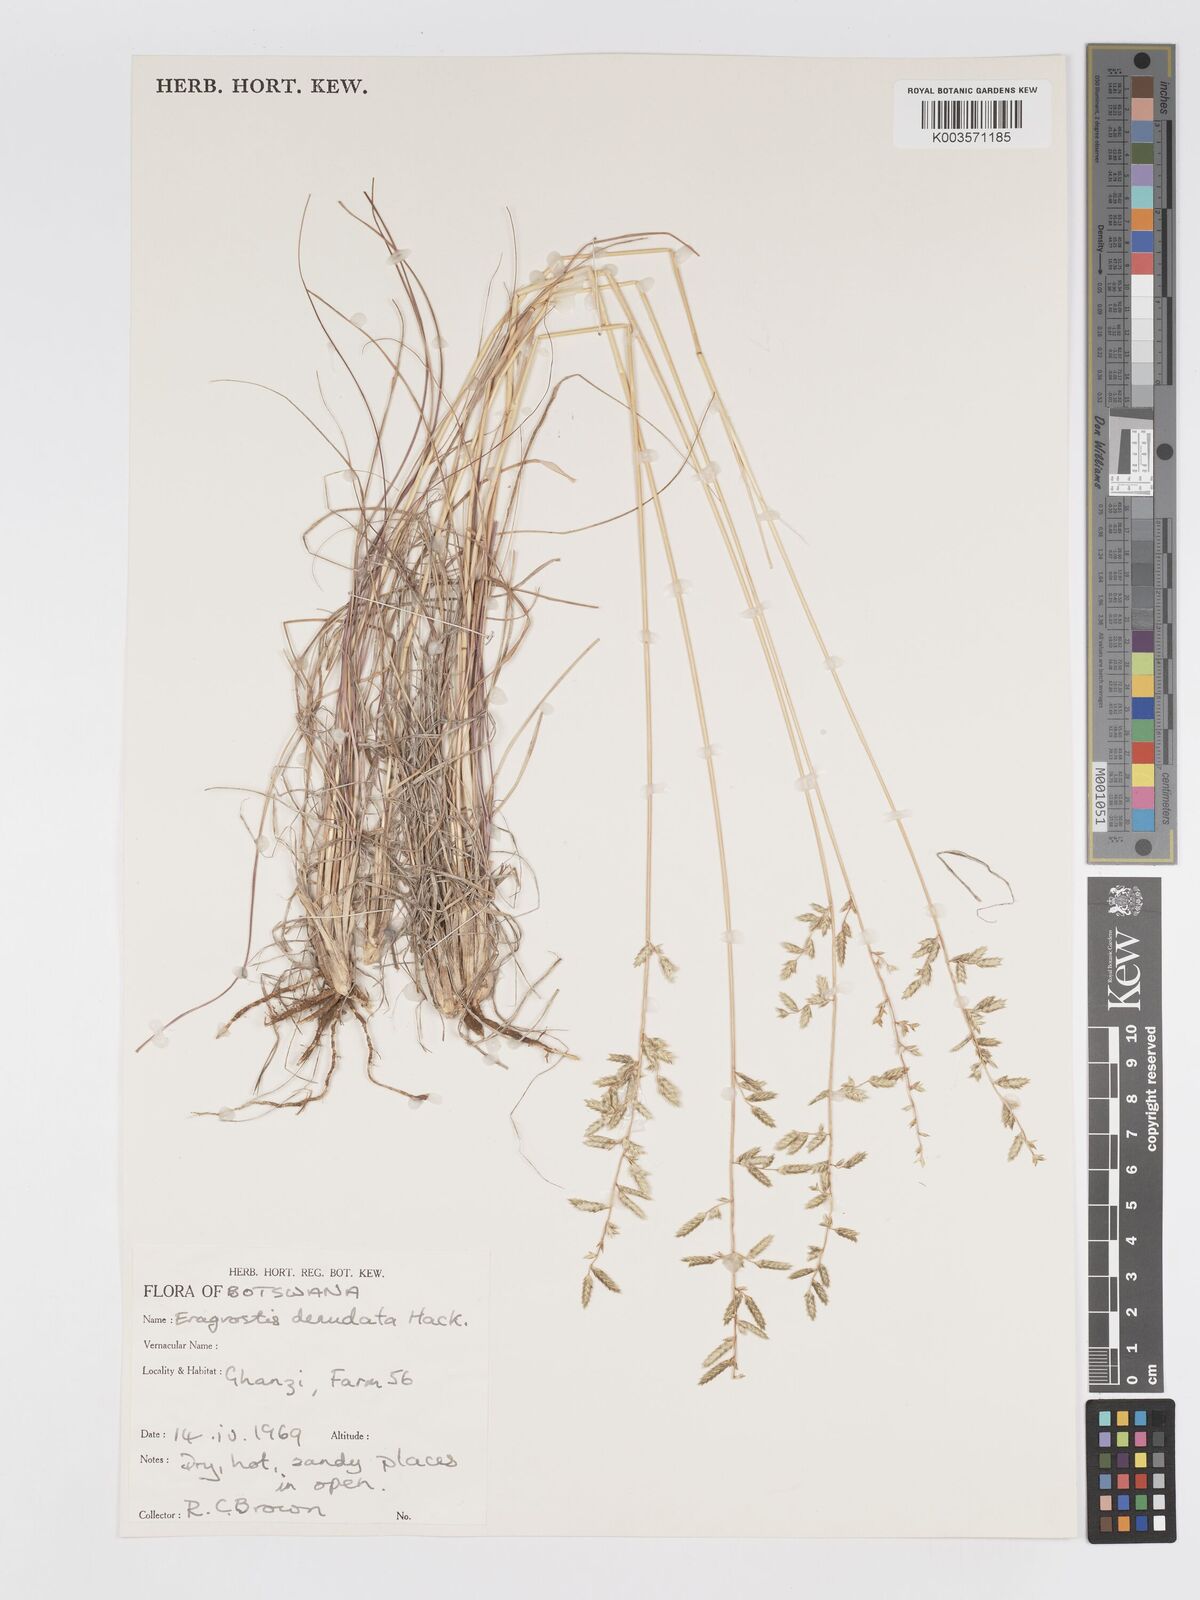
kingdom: Plantae
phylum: Tracheophyta
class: Liliopsida
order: Poales
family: Poaceae
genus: Eragrostis
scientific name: Eragrostis nindensis
